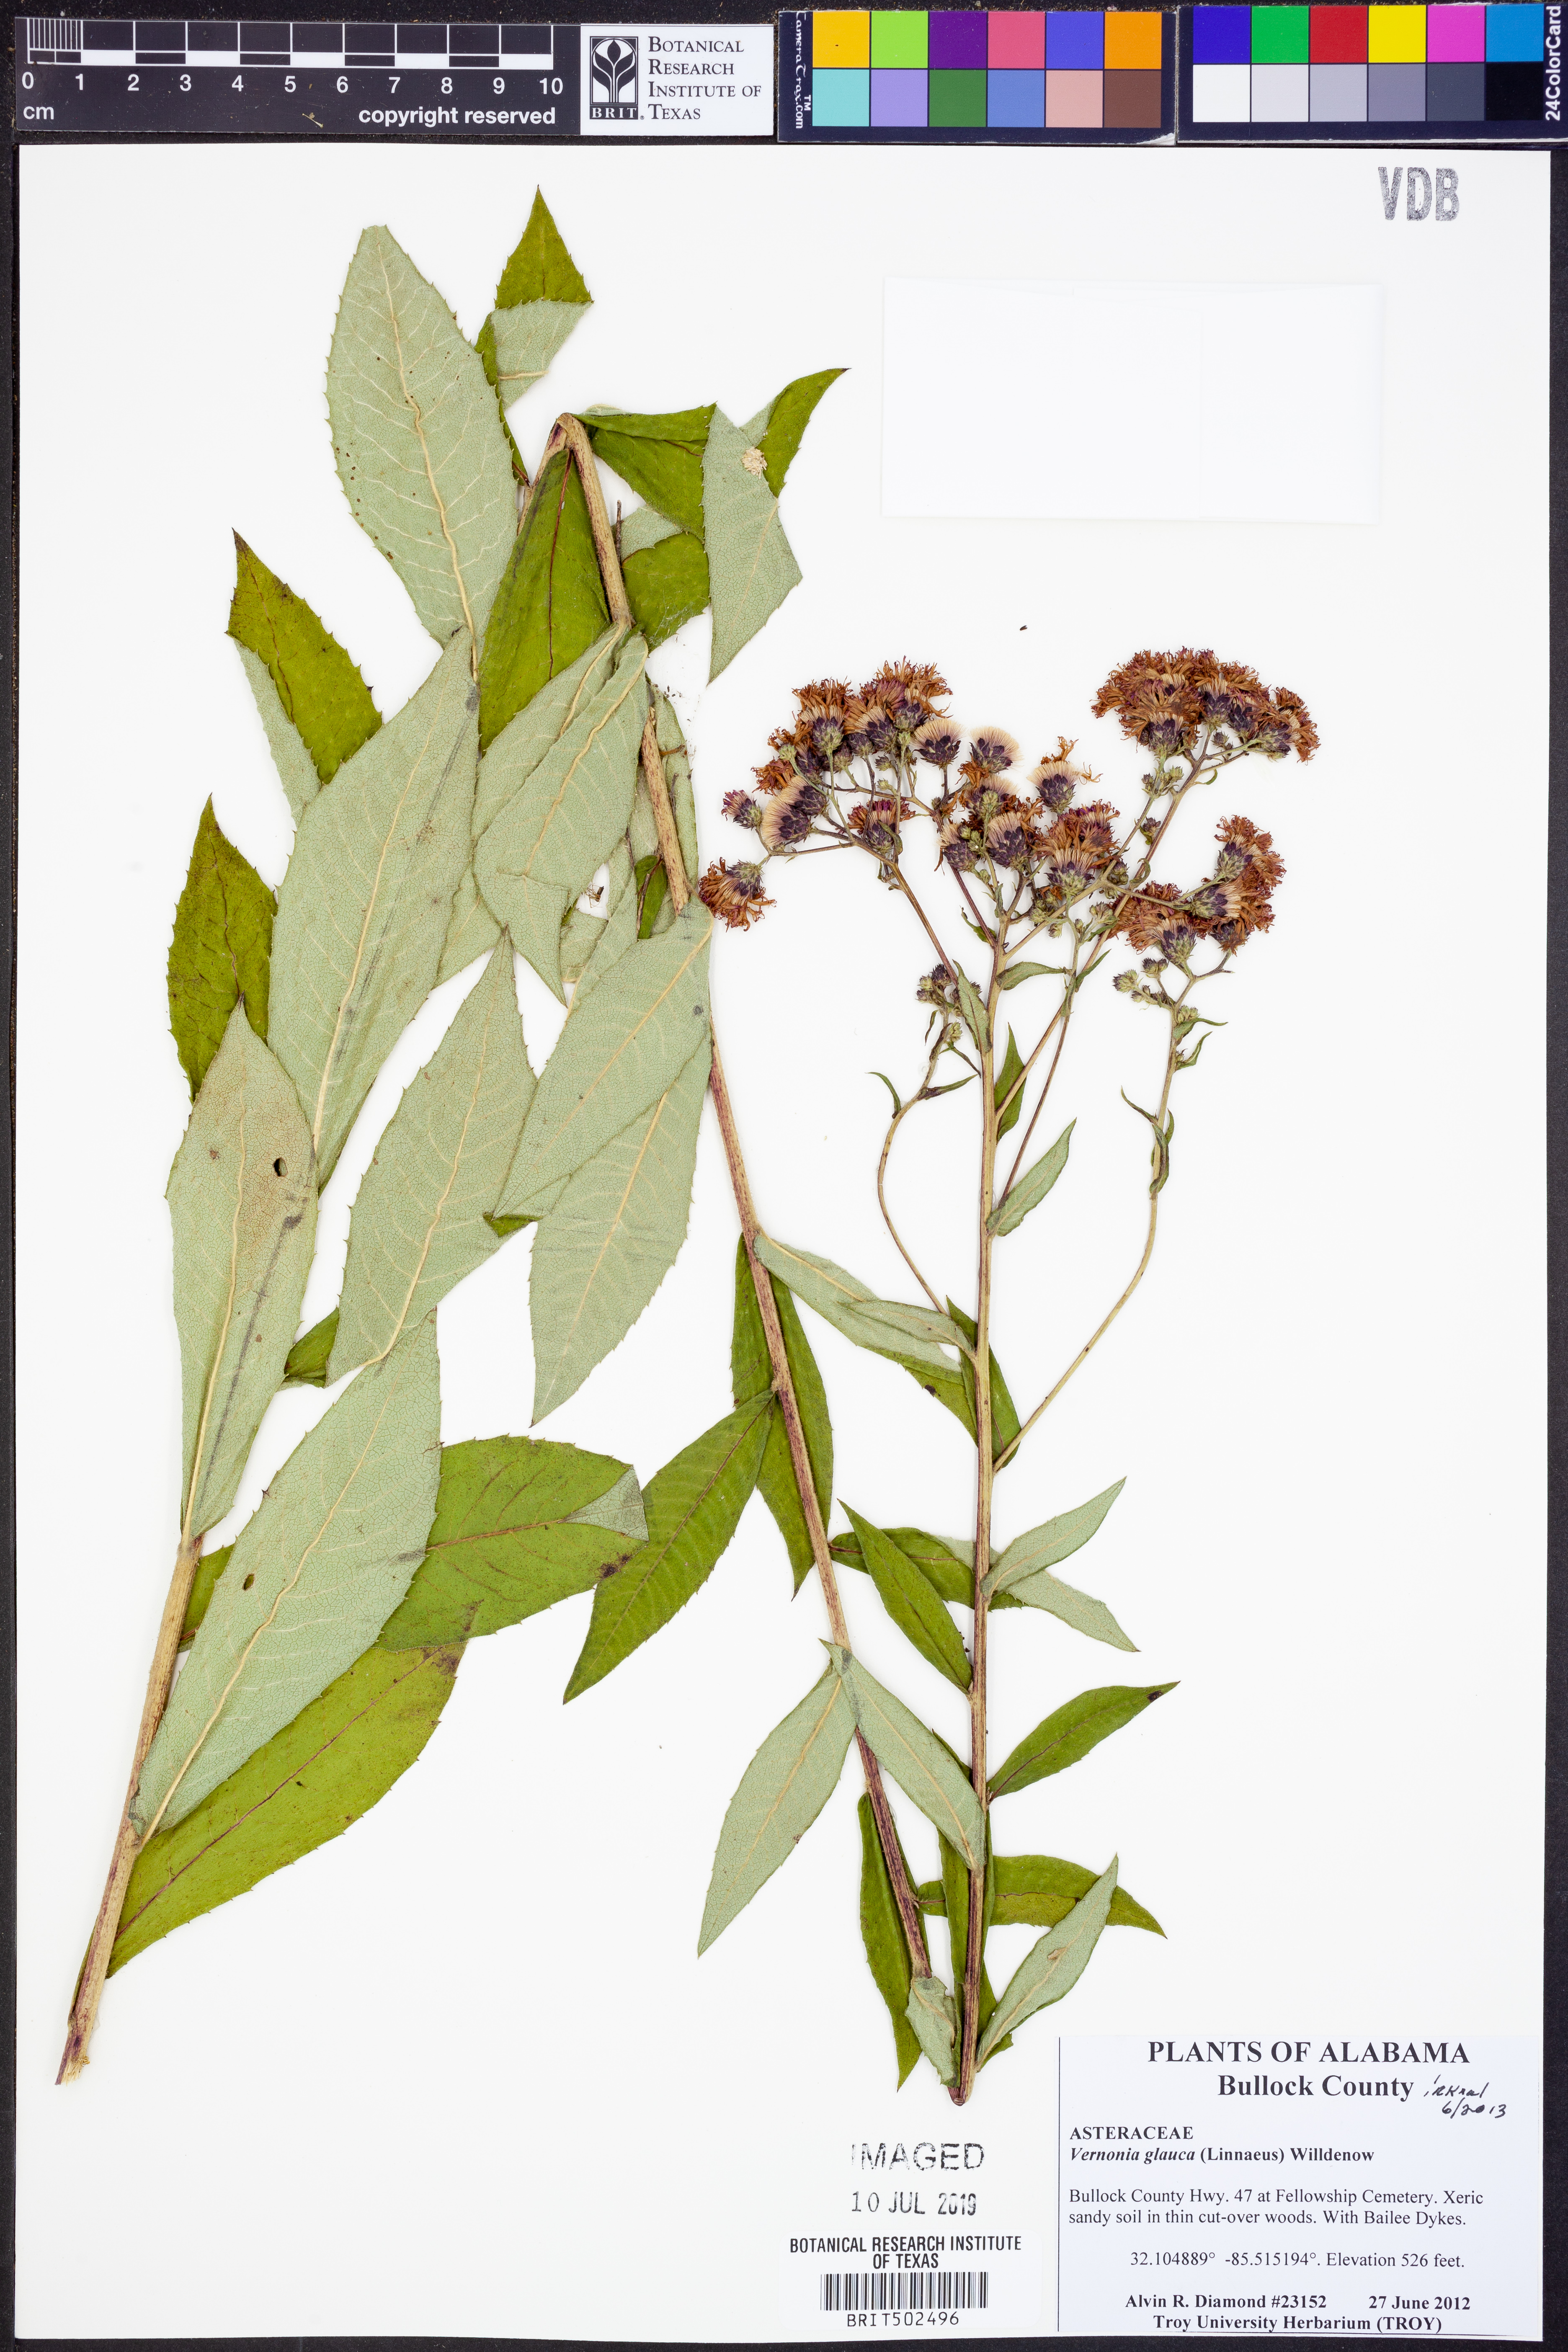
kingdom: Plantae
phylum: Tracheophyta
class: Magnoliopsida
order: Asterales
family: Asteraceae
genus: Vernonia
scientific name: Vernonia glauca
